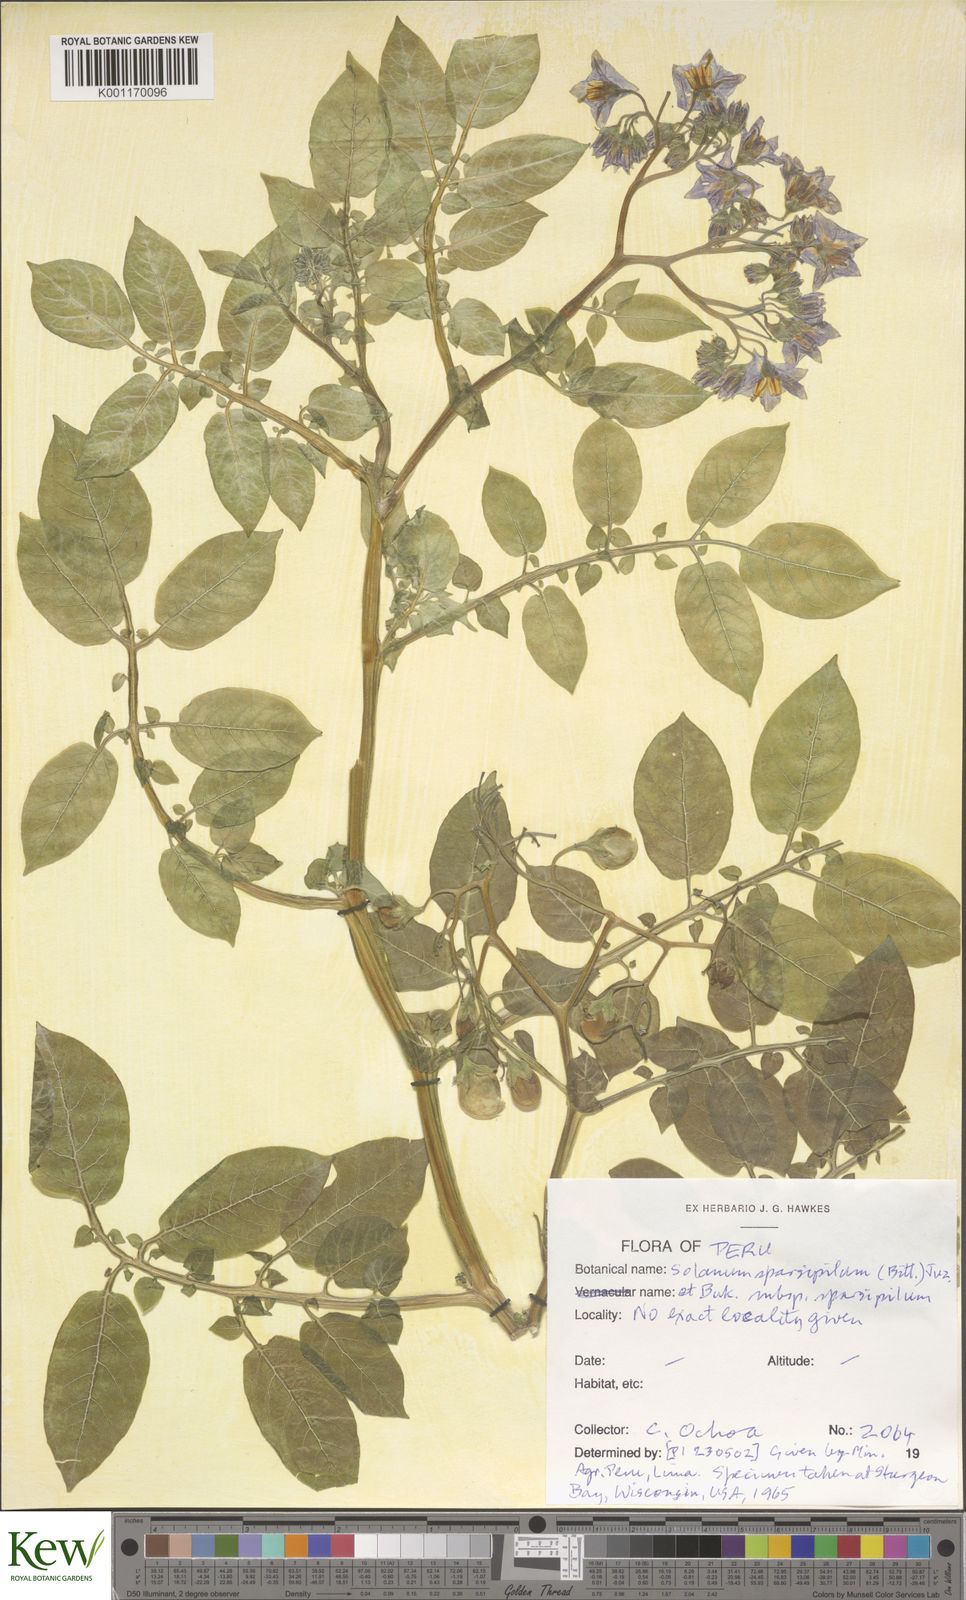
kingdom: Plantae
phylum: Tracheophyta
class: Magnoliopsida
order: Solanales
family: Solanaceae
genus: Solanum
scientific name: Solanum brevicaule
